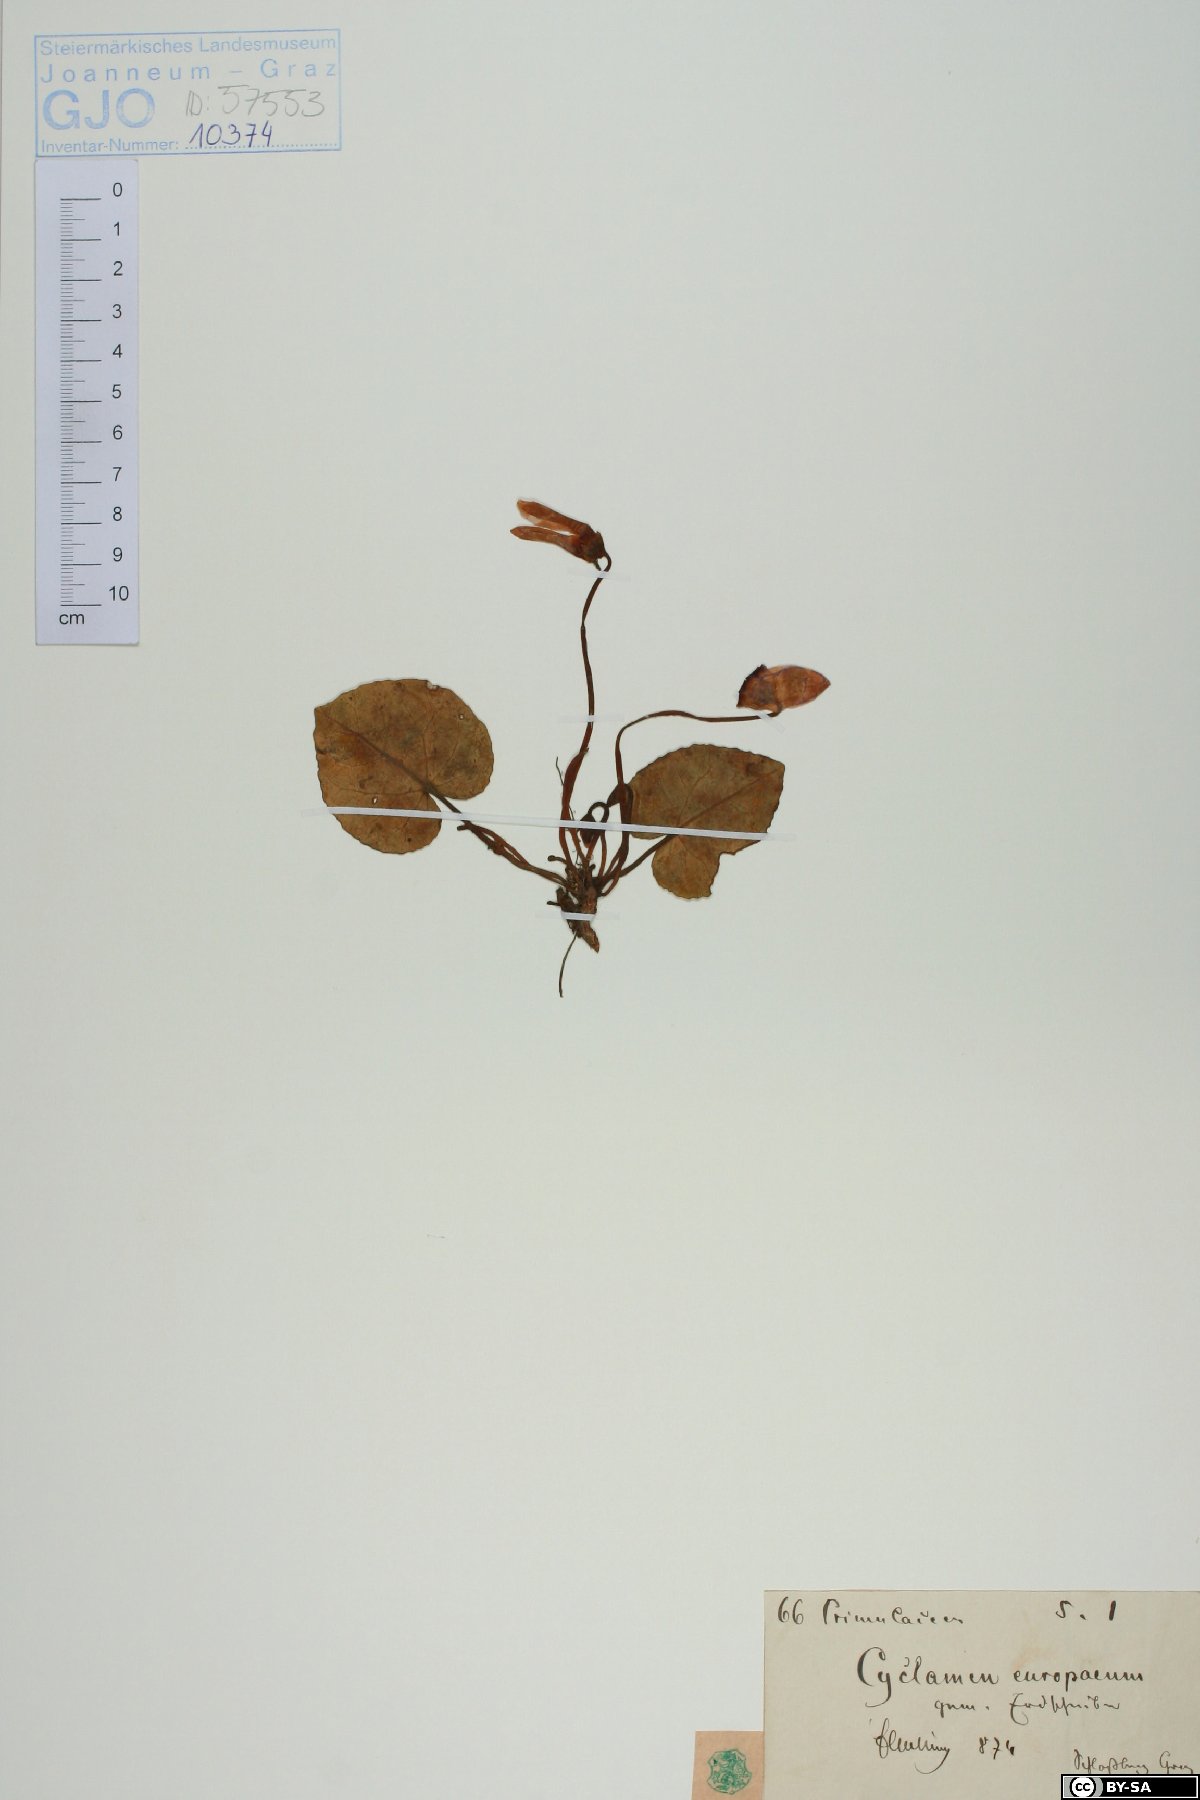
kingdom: Plantae
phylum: Tracheophyta
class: Magnoliopsida
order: Ericales
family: Primulaceae
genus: Cyclamen
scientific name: Cyclamen purpurascens
